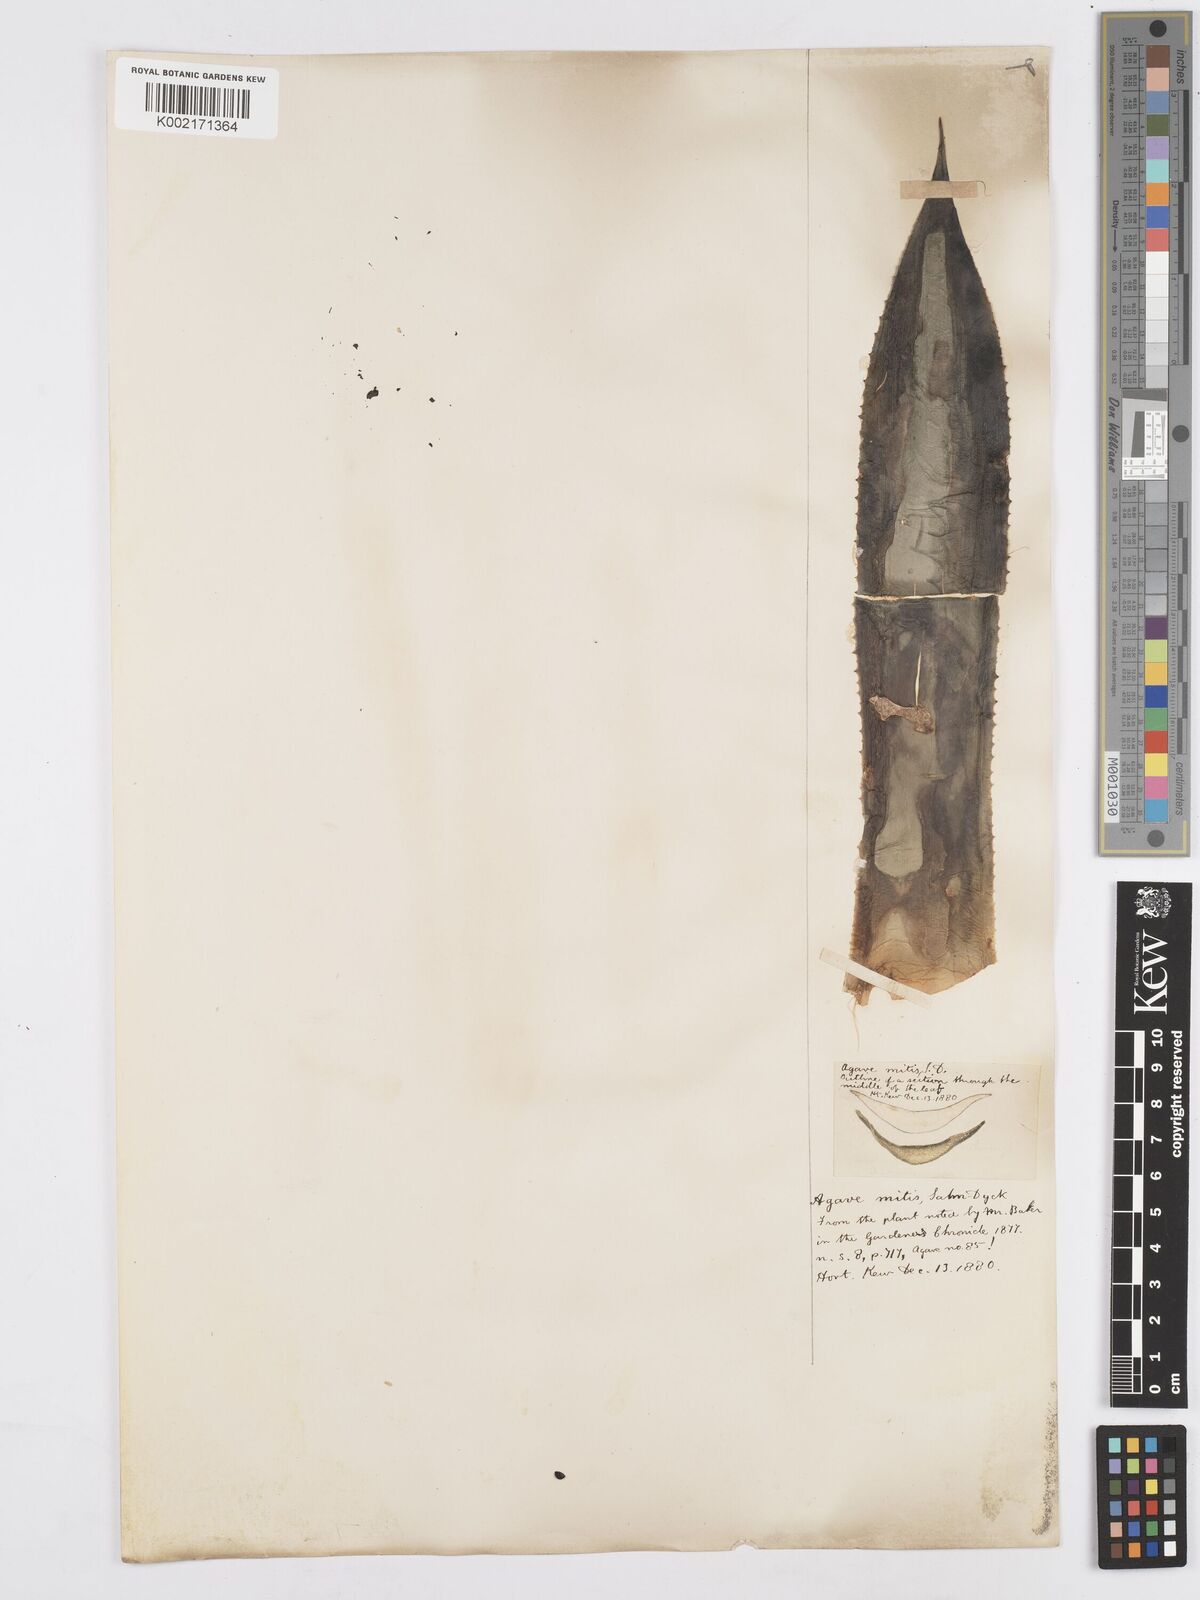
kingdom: Plantae
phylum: Tracheophyta
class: Liliopsida
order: Asparagales
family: Asparagaceae
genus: Agave
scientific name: Agave mitis
